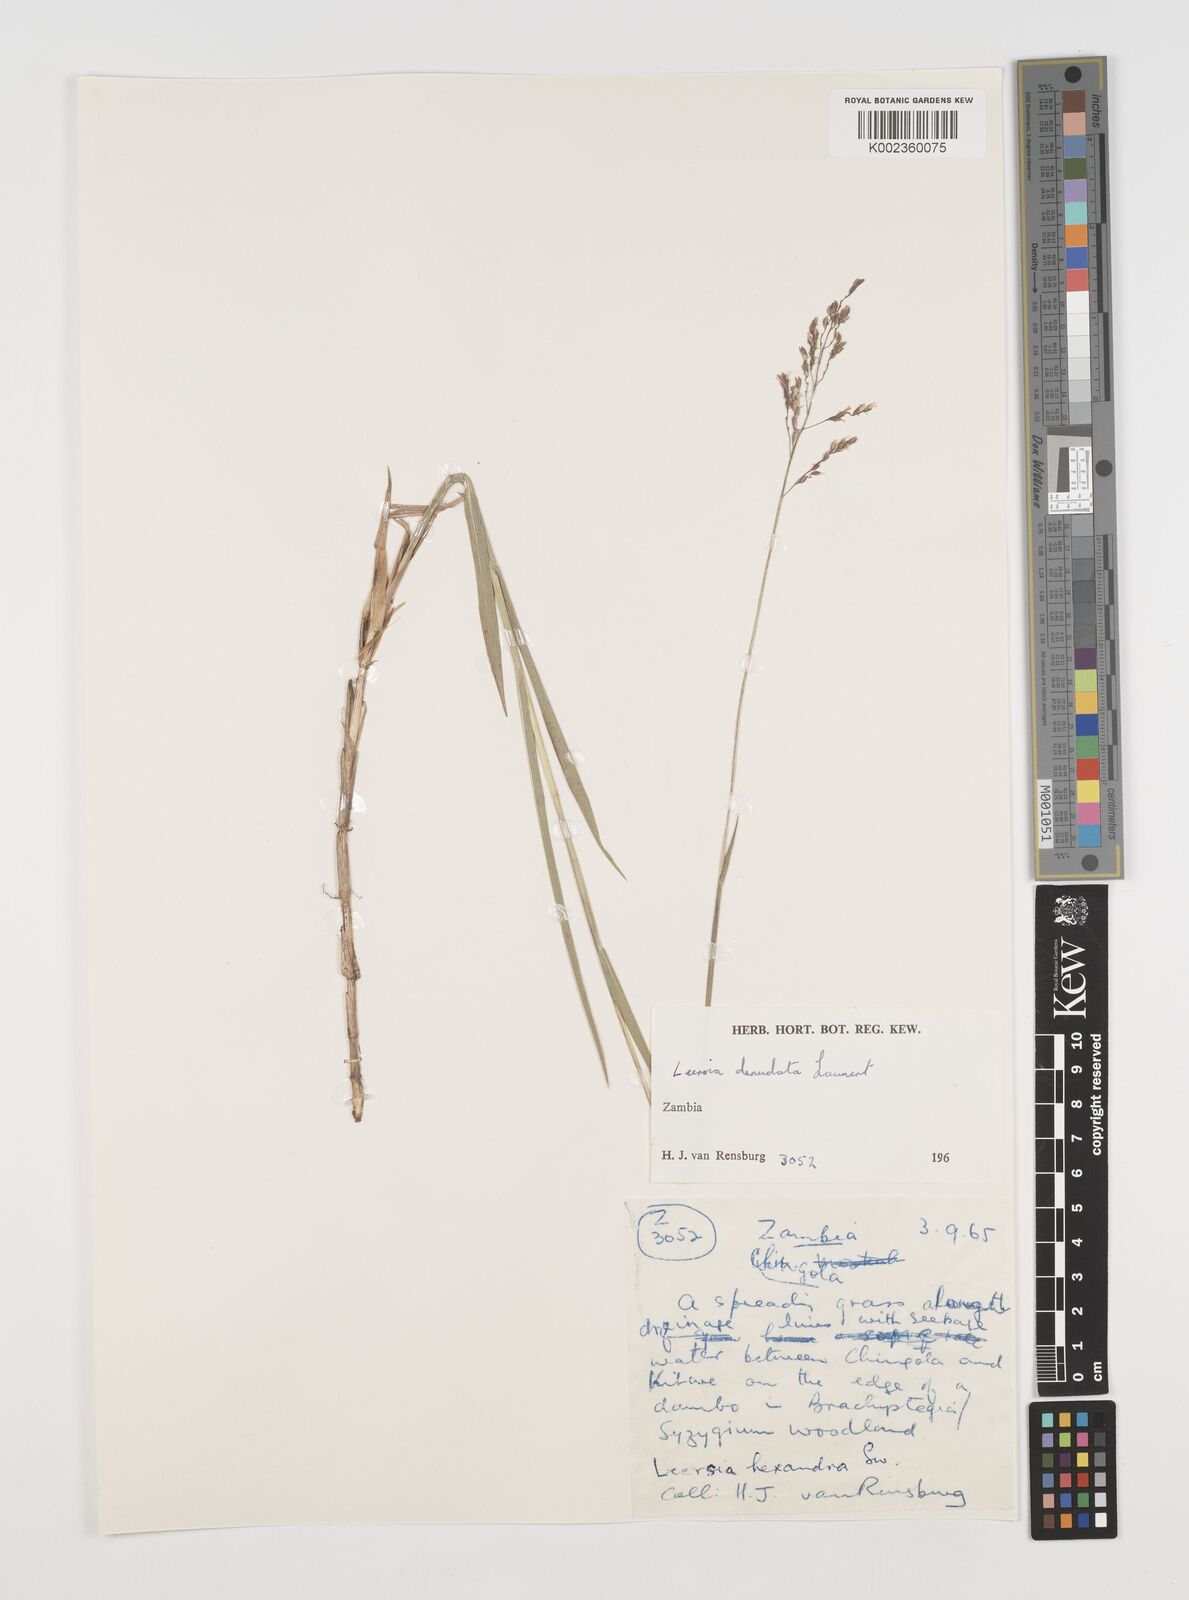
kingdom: Plantae
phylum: Tracheophyta
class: Liliopsida
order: Poales
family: Poaceae
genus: Leersia
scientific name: Leersia denudata
